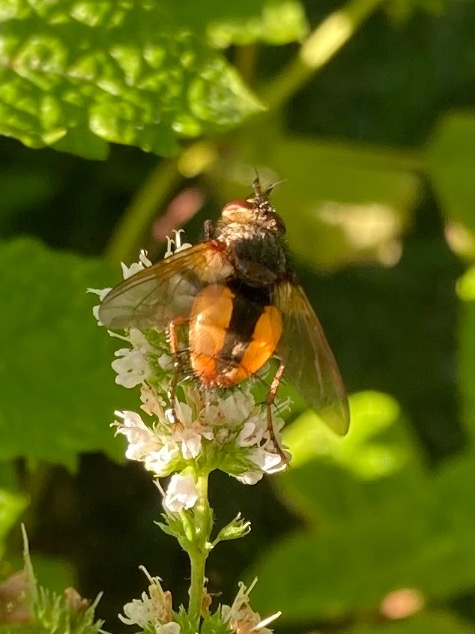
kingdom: Animalia
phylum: Arthropoda
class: Insecta
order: Diptera
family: Tachinidae
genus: Tachina
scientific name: Tachina fera
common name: Mellemfluen oskar
